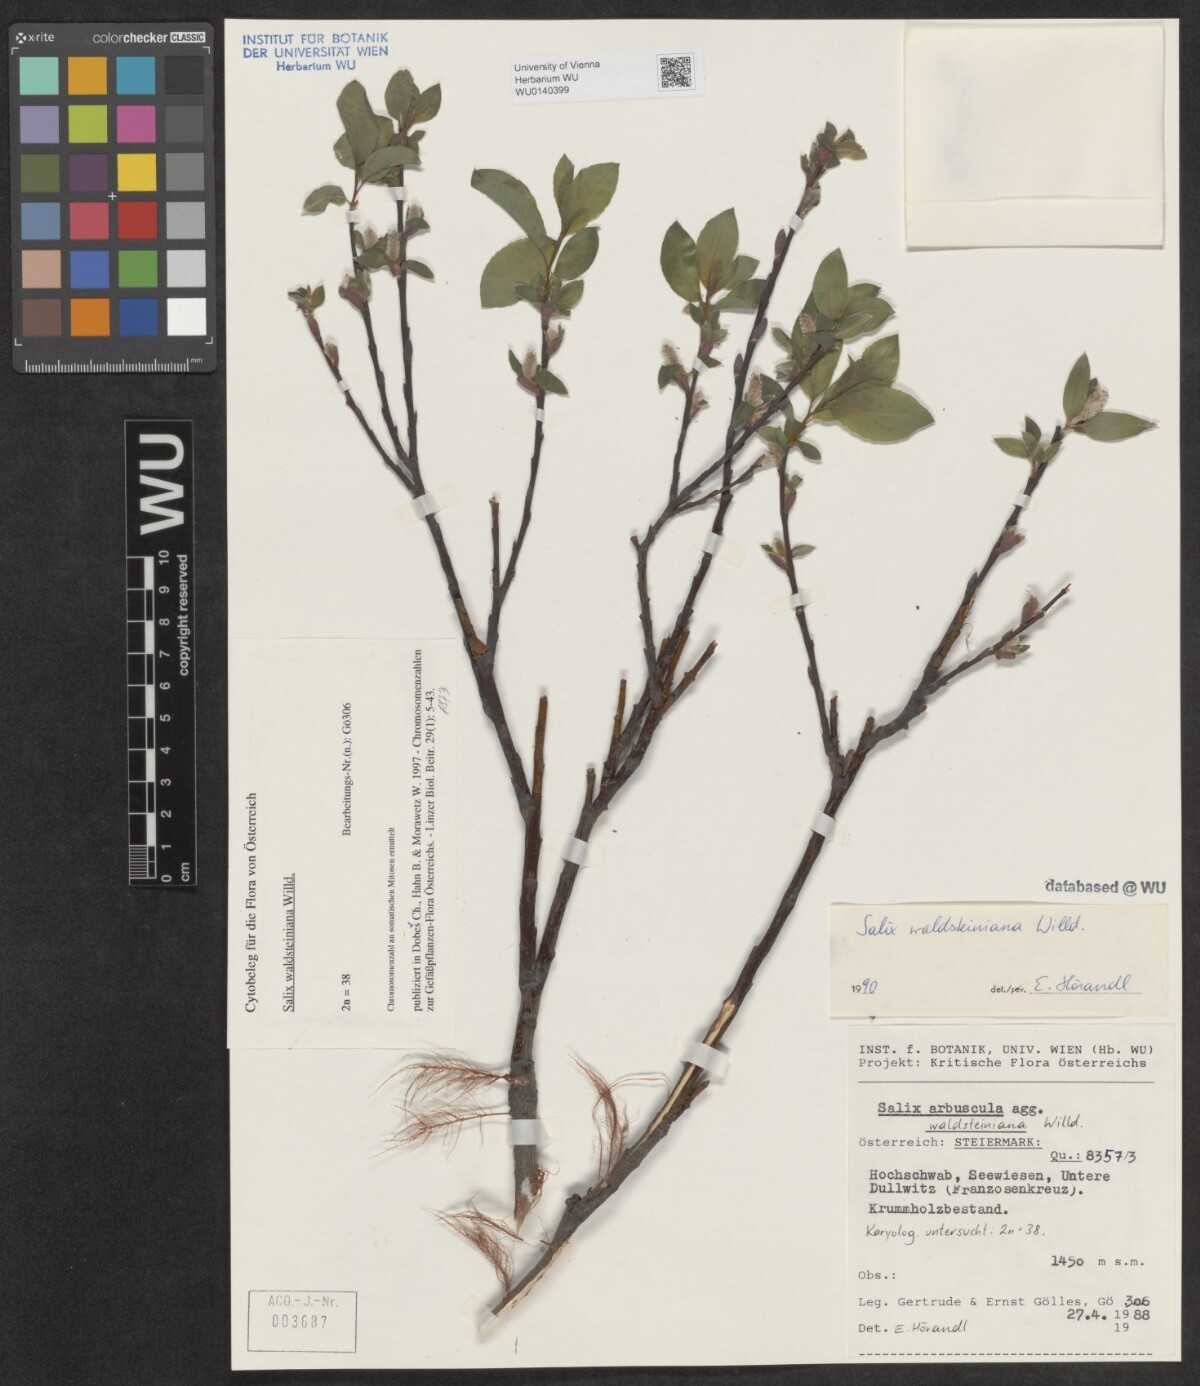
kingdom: Plantae
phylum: Tracheophyta
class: Magnoliopsida
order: Malpighiales
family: Salicaceae
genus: Salix
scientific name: Salix waldsteiniana
